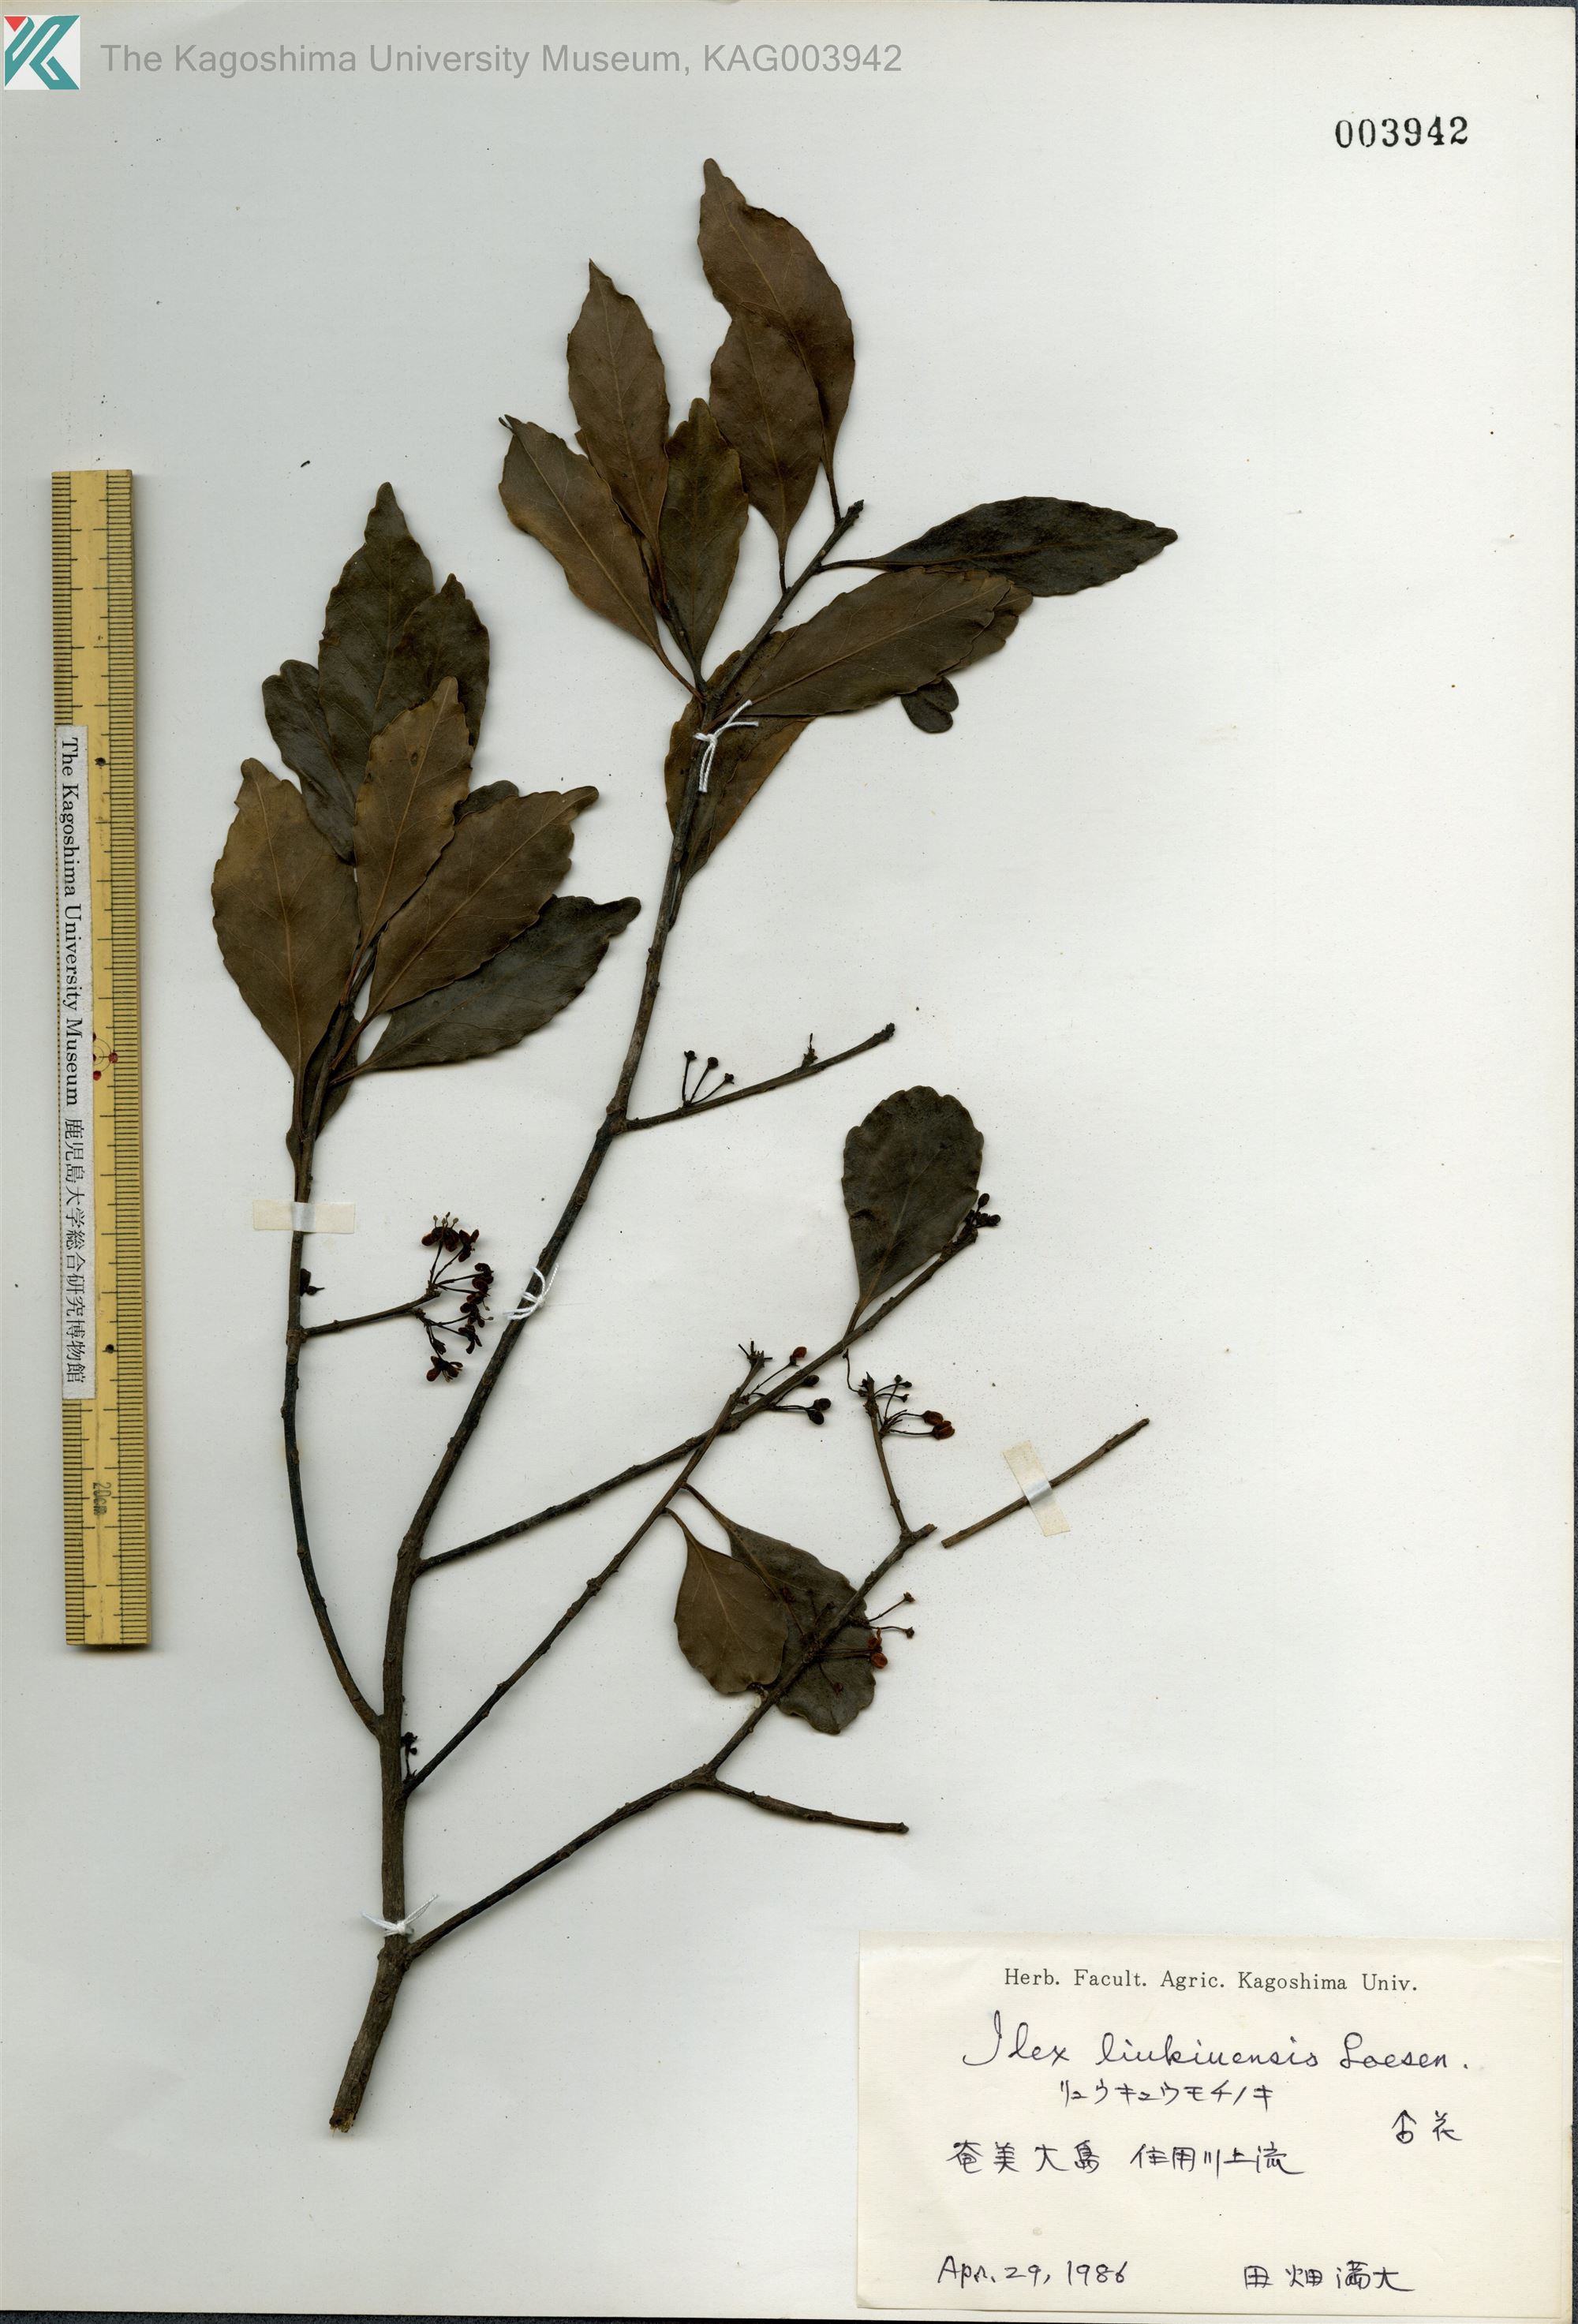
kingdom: Plantae
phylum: Tracheophyta
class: Magnoliopsida
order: Aquifoliales
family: Aquifoliaceae
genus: Ilex
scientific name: Ilex liukiuensis
